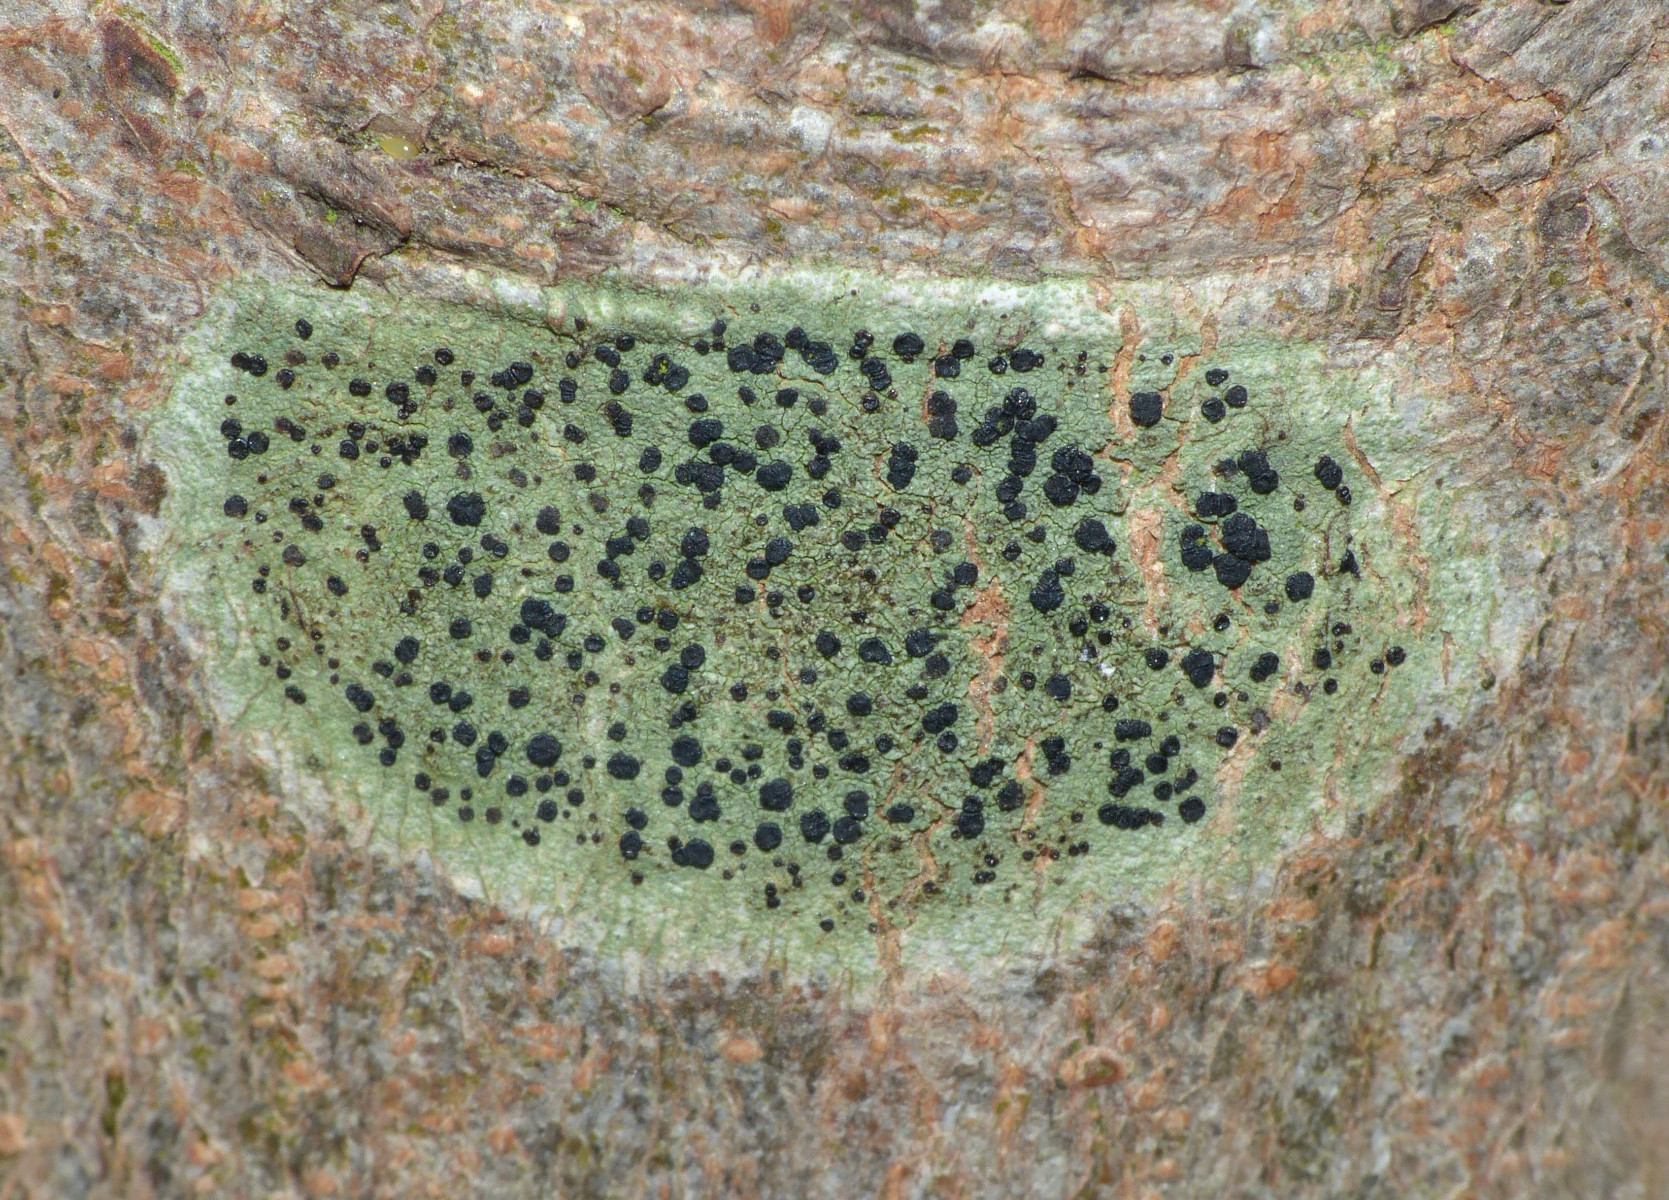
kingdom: Fungi
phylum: Ascomycota
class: Lecanoromycetes
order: Lecanorales
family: Lecanoraceae
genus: Lecidella
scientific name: Lecidella elaeochroma
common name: grågrøn skivelav
